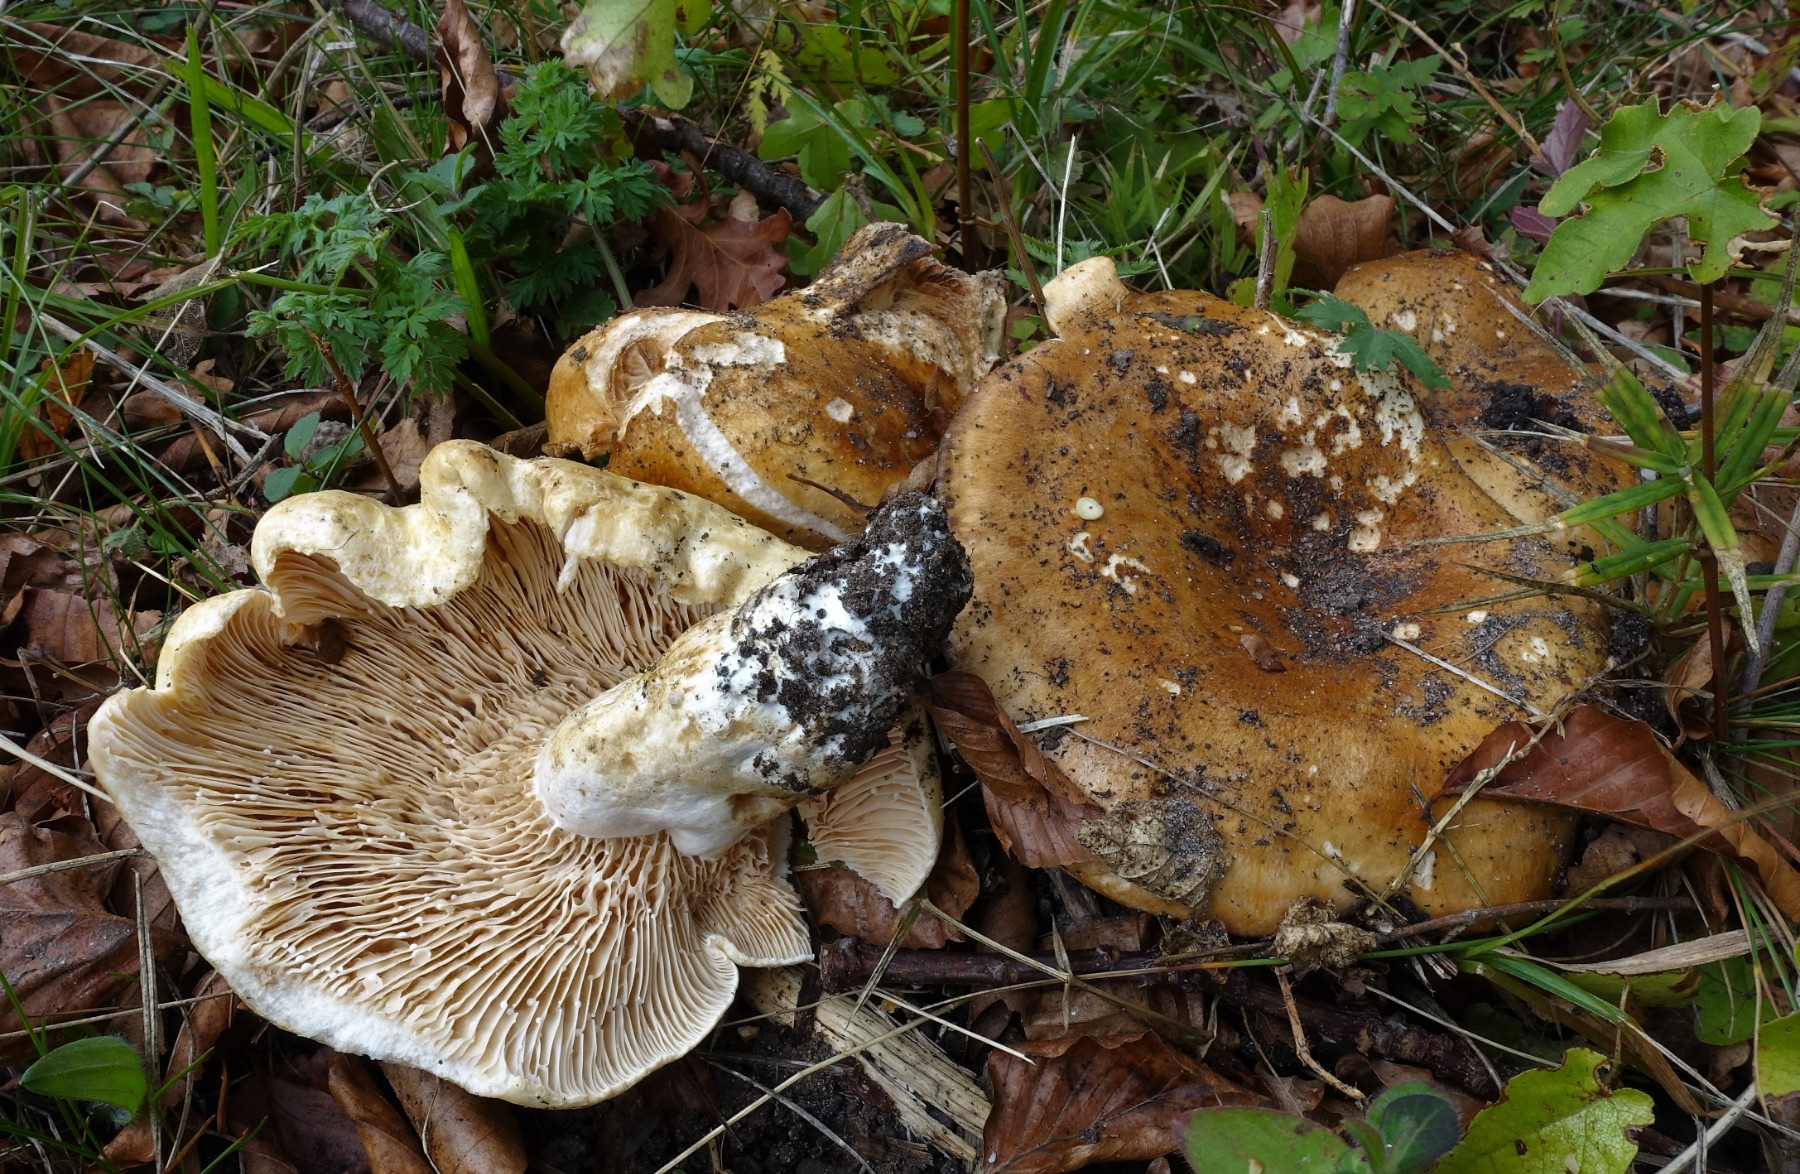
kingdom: Fungi
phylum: Basidiomycota
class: Agaricomycetes
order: Russulales
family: Russulaceae
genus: Lactarius
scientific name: Lactarius acerrimus
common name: brændende mælkehat
